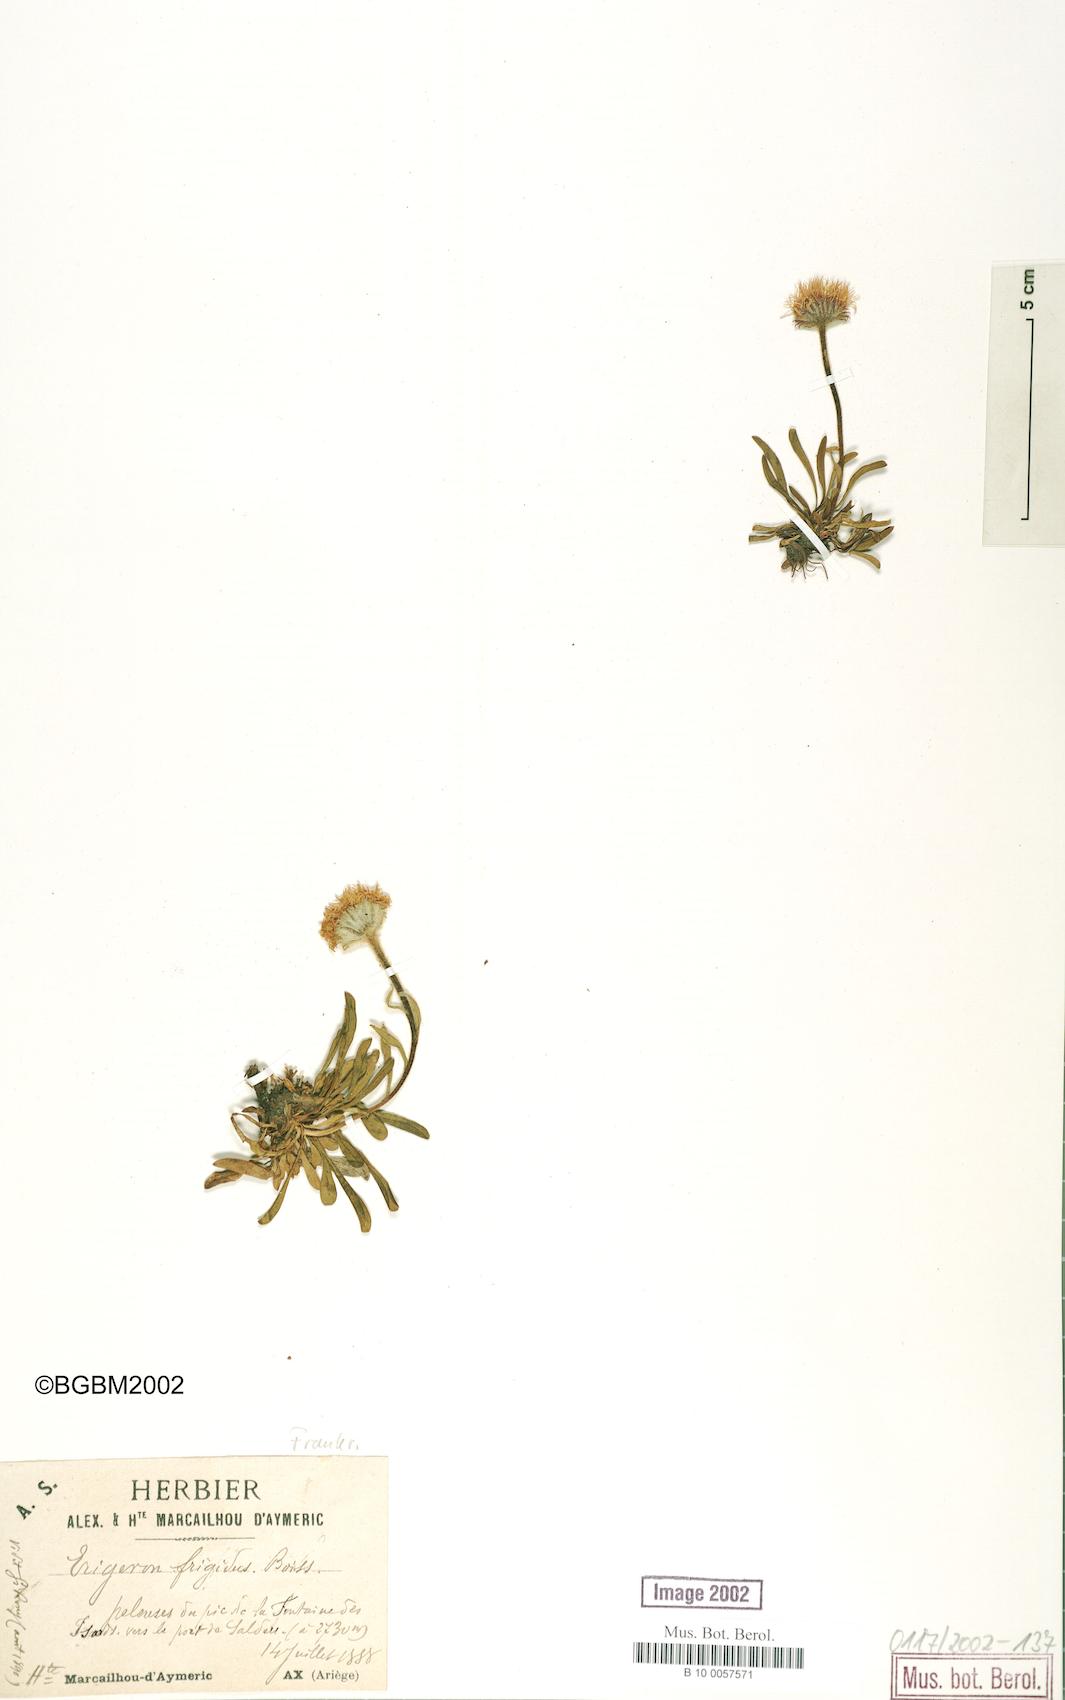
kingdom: Plantae
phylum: Tracheophyta
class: Magnoliopsida
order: Asterales
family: Asteraceae
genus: Erigeron
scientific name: Erigeron aragonensis
